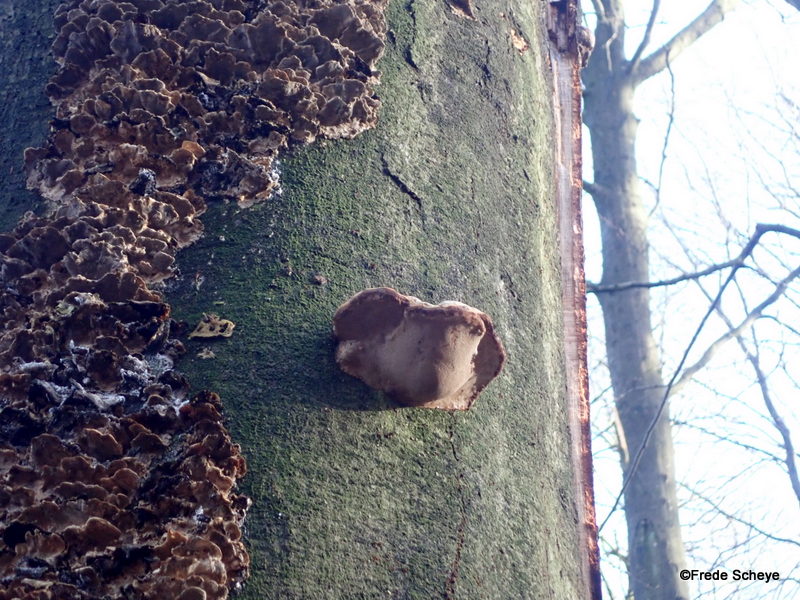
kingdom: Fungi
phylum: Basidiomycota
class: Agaricomycetes
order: Polyporales
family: Polyporaceae
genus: Fomes
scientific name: Fomes fomentarius
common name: tøndersvamp
